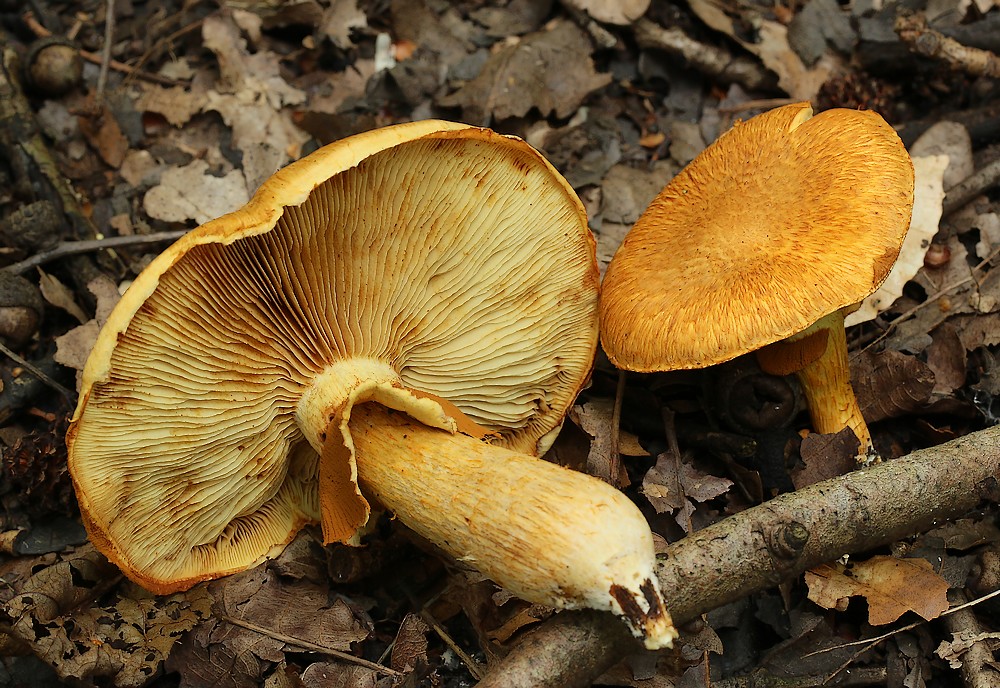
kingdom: Fungi
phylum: Basidiomycota
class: Agaricomycetes
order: Agaricales
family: Hymenogastraceae
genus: Gymnopilus
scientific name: Gymnopilus spectabilis
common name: fibret flammehat
